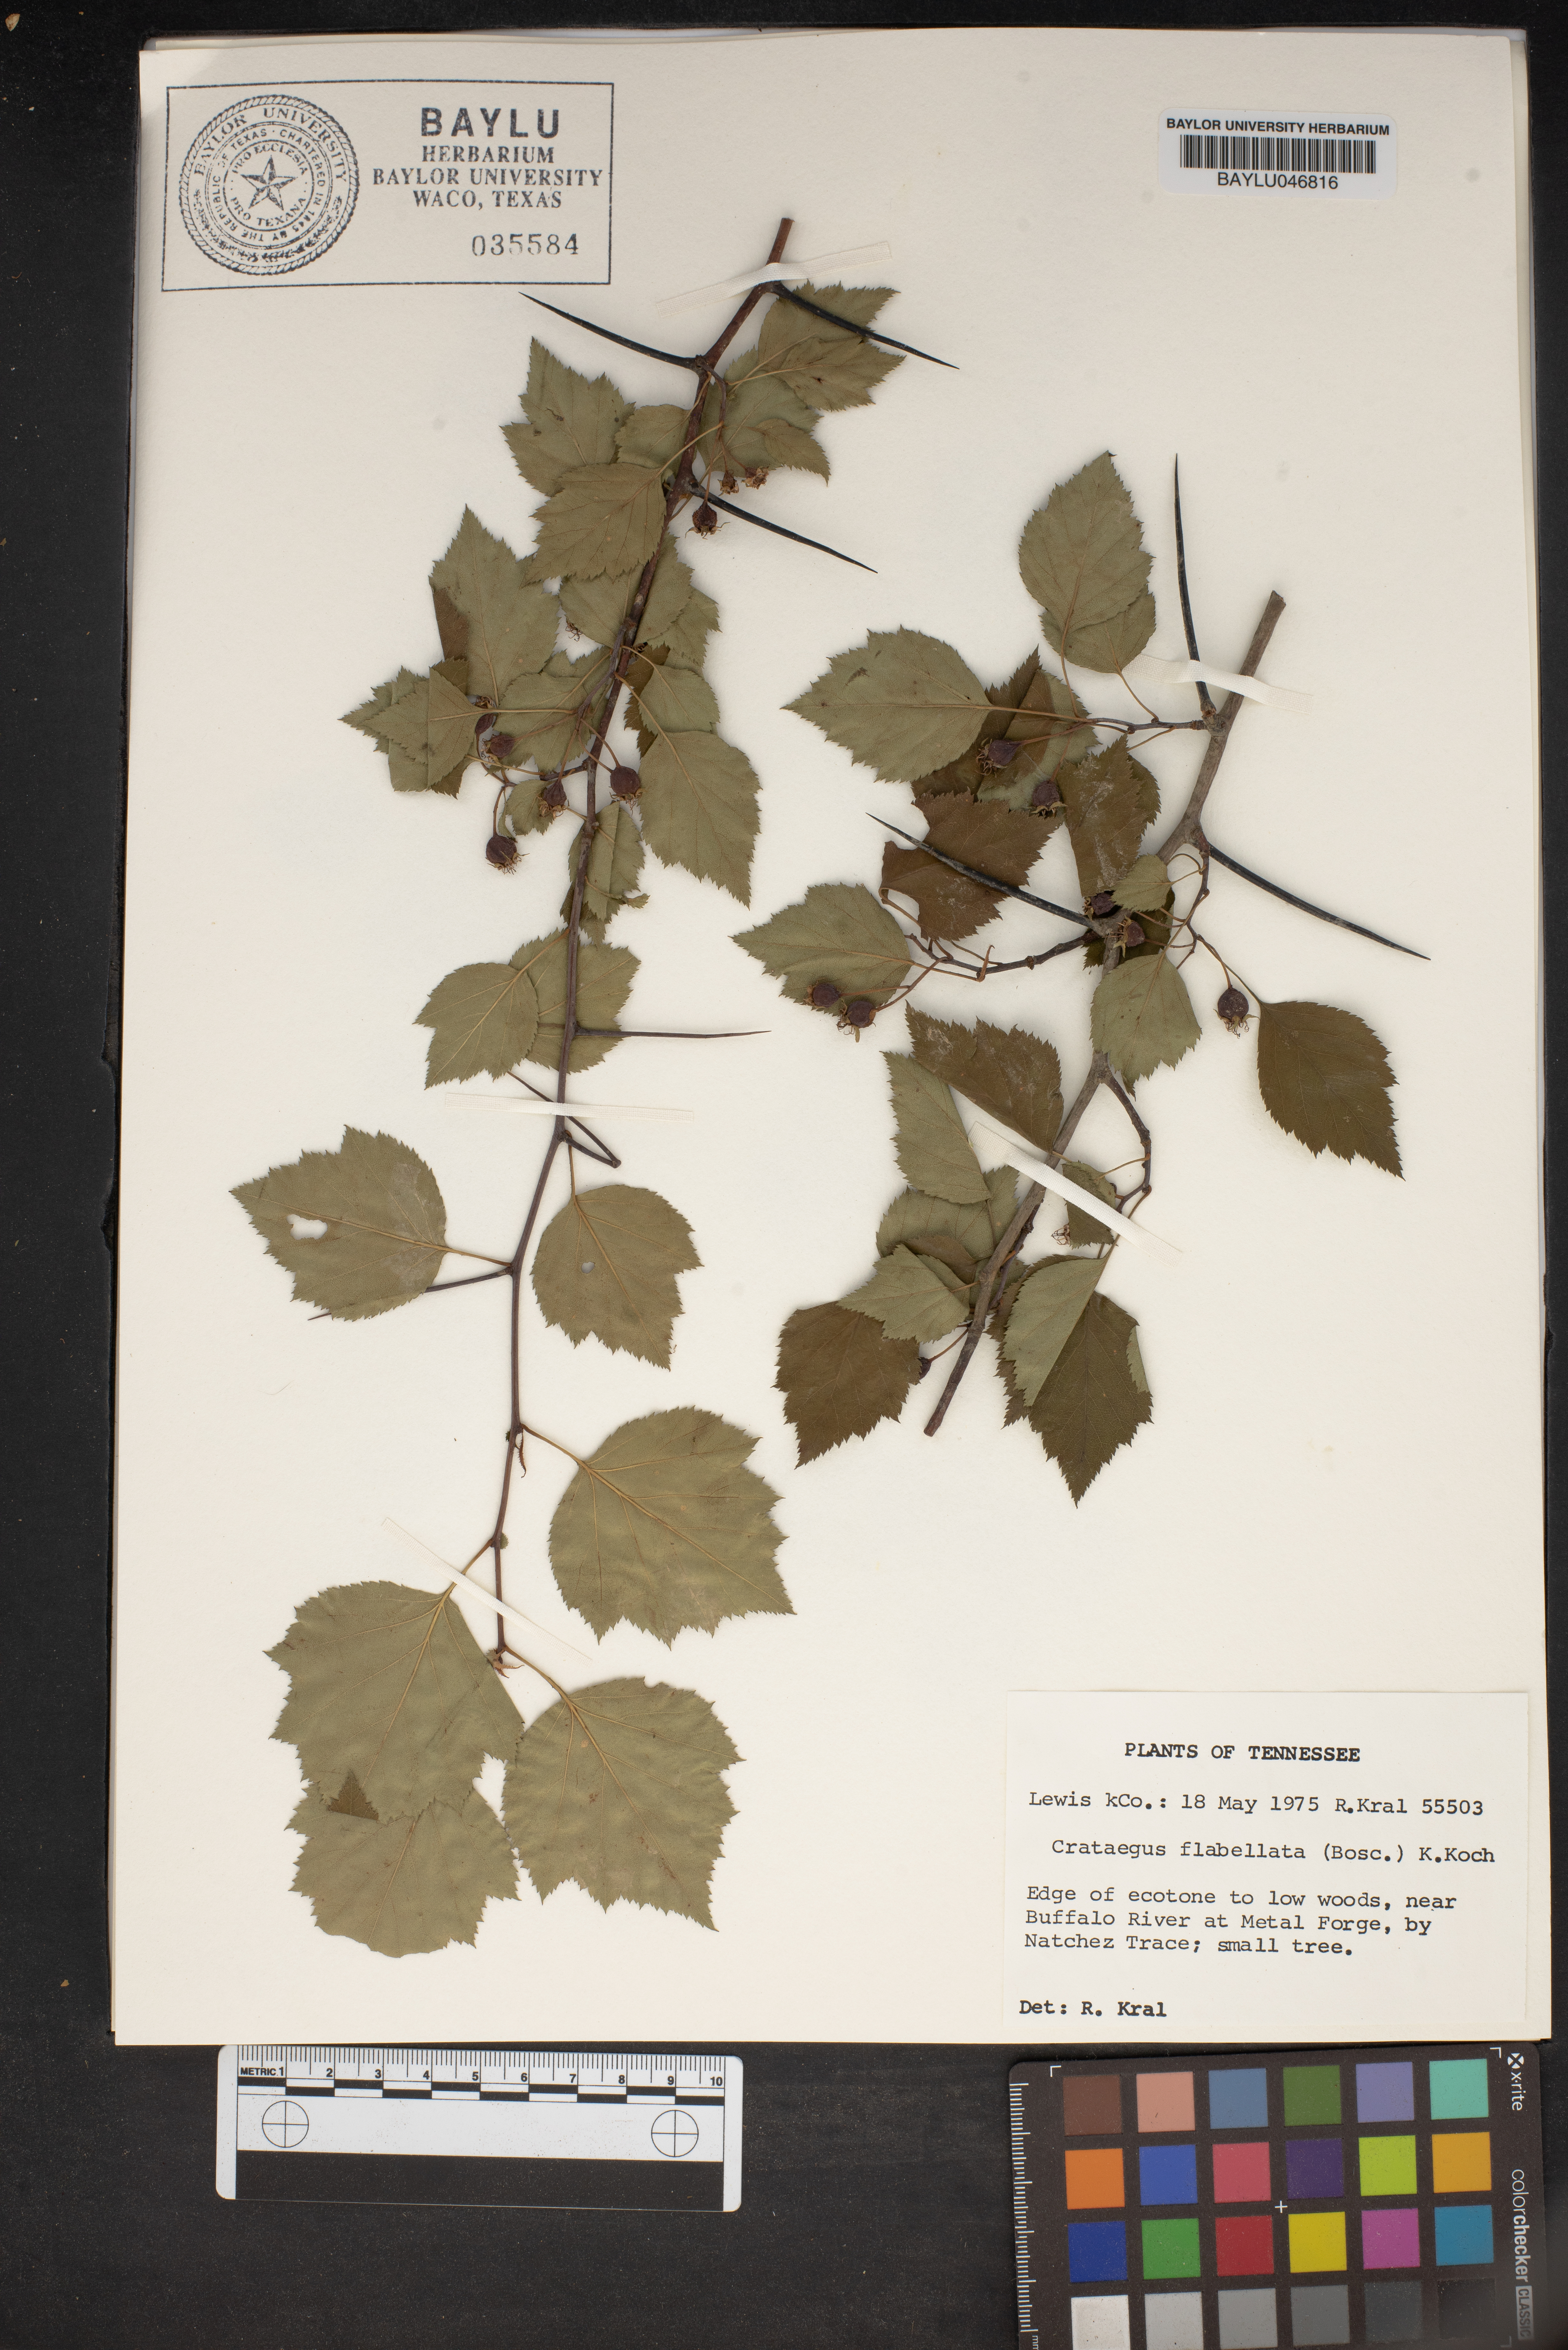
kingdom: Plantae
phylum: Tracheophyta
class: Magnoliopsida
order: Rosales
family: Rosaceae
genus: Crataegus
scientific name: Crataegus flabellata
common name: Bosc's hawthorn
